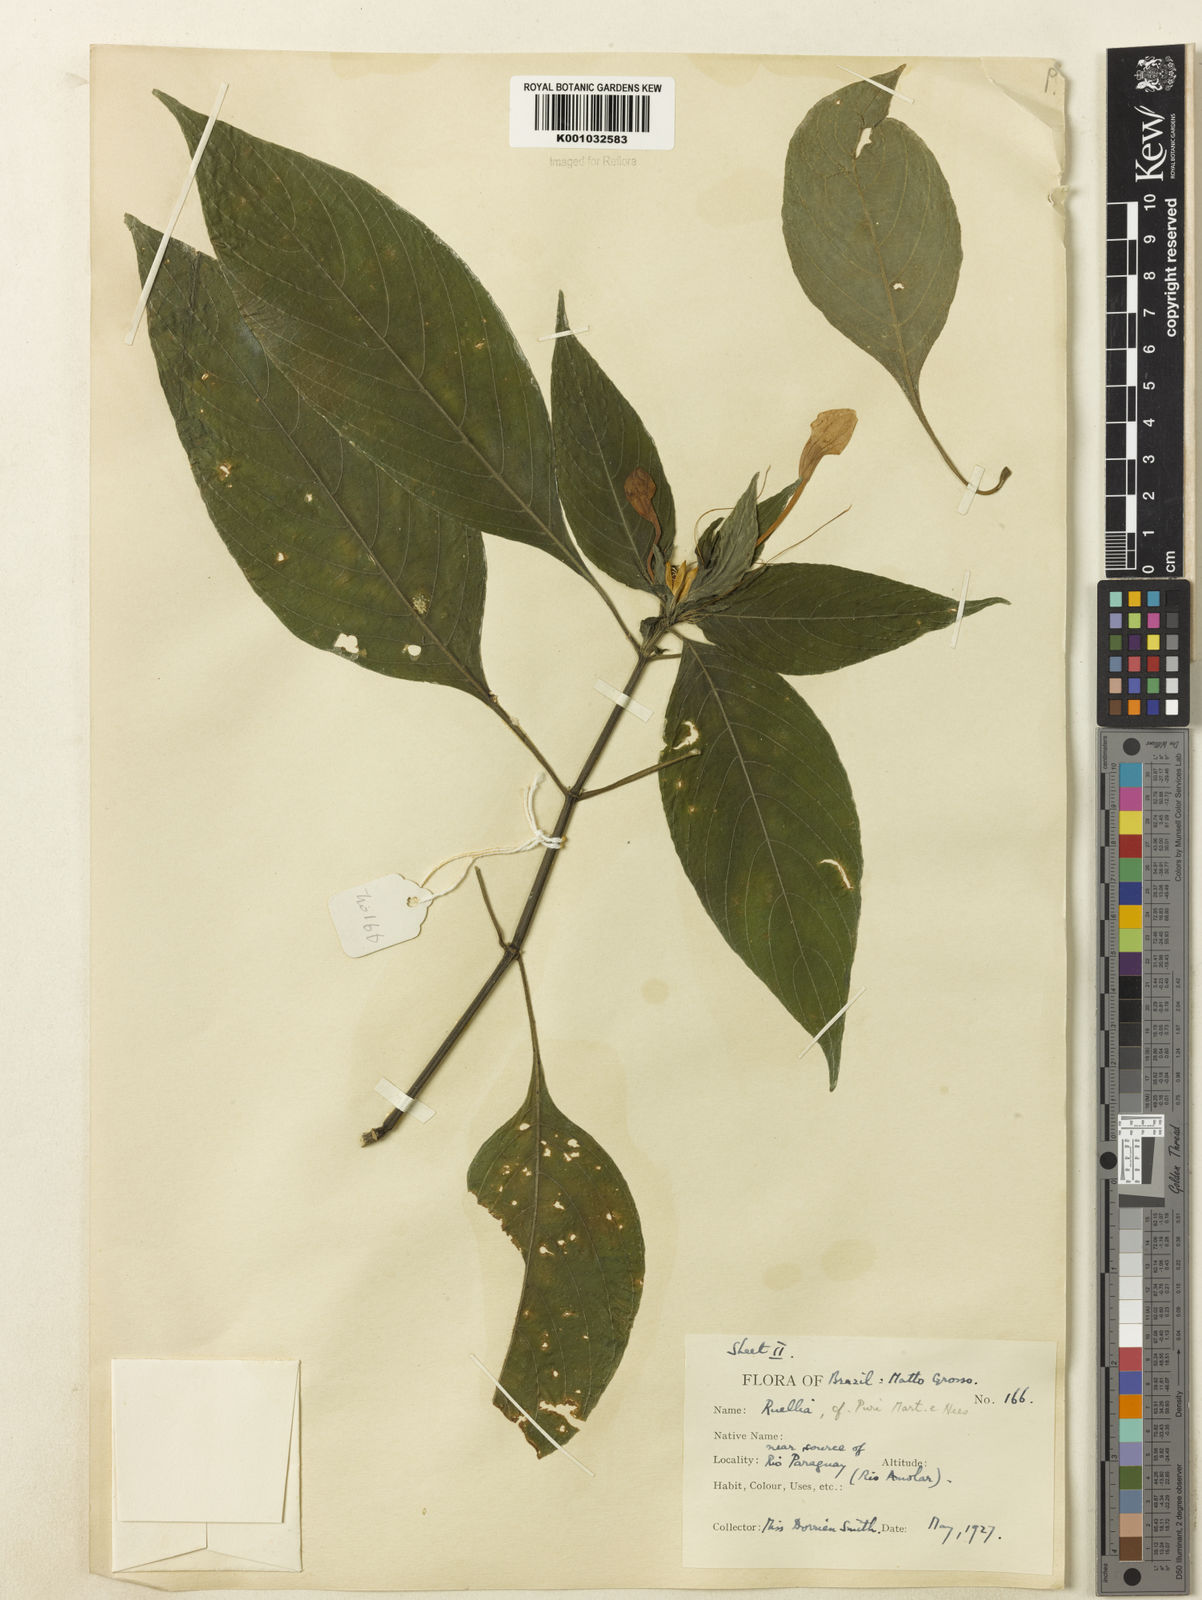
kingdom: Plantae
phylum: Tracheophyta
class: Magnoliopsida
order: Lamiales
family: Acanthaceae
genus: Ruellia
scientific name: Ruellia jussieuoides
